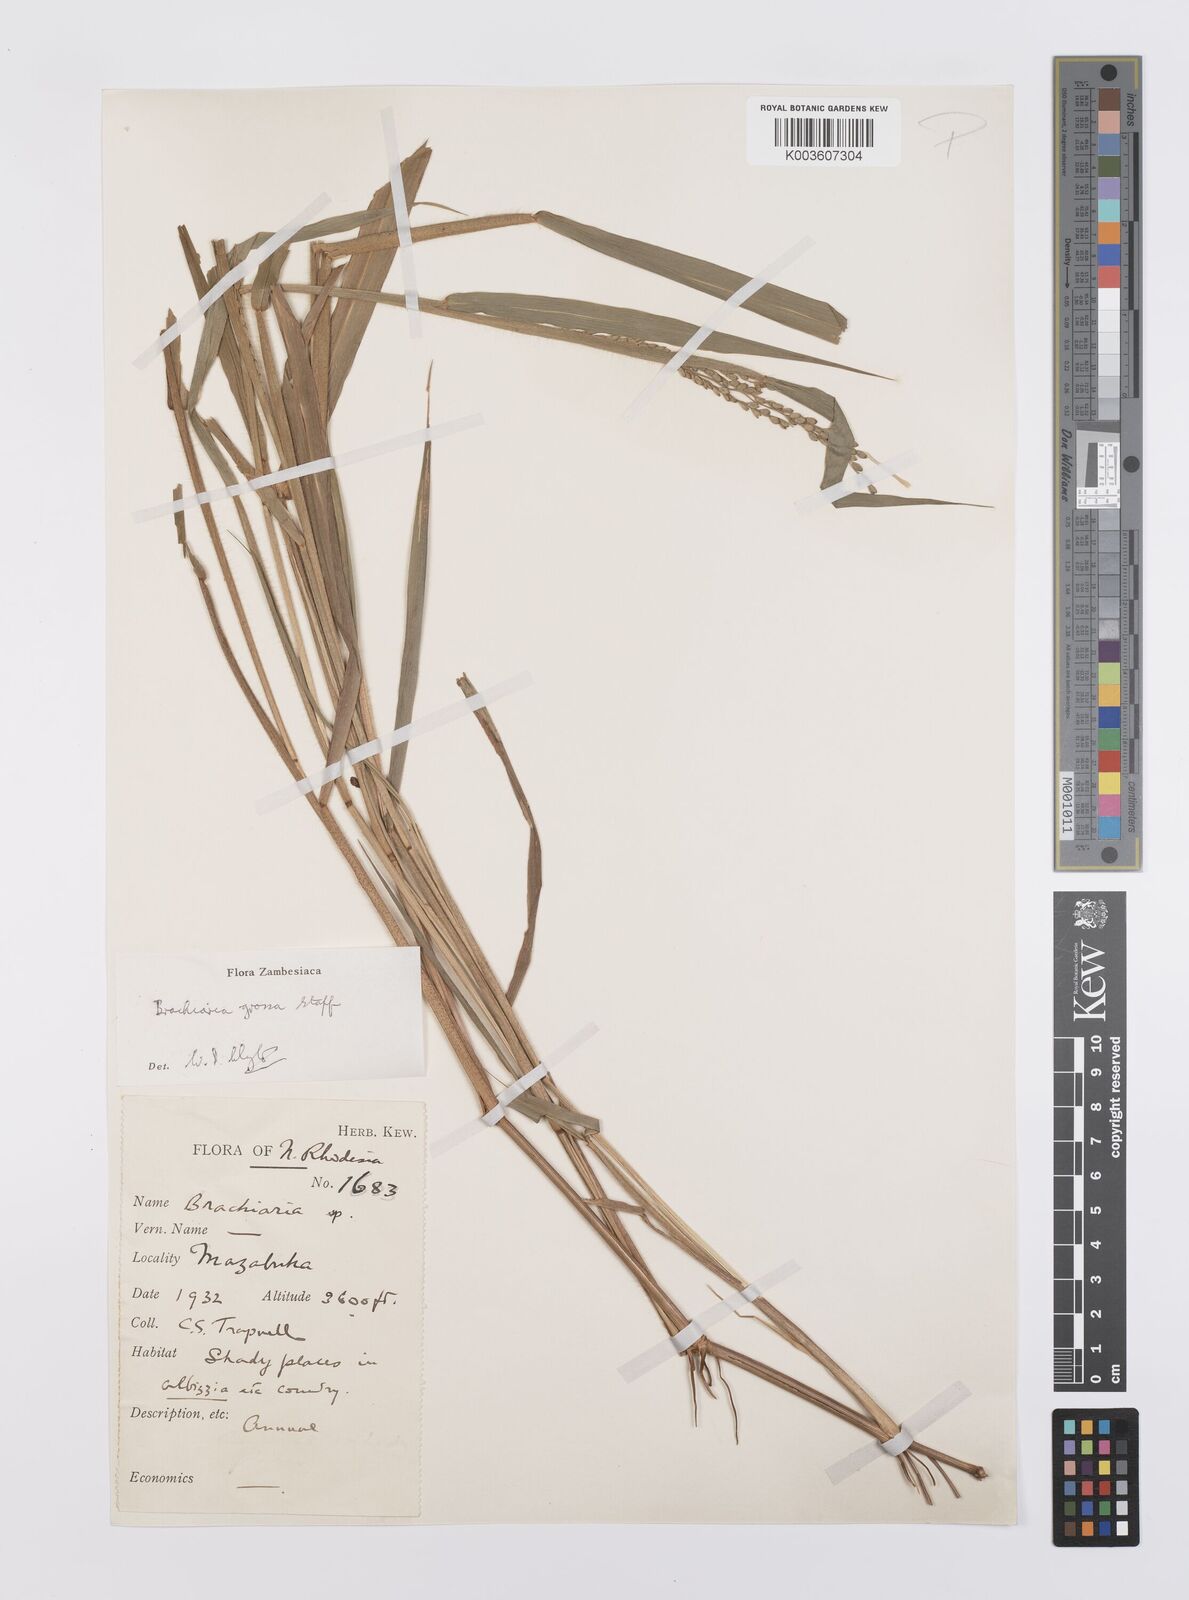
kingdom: Plantae
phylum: Tracheophyta
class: Liliopsida
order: Poales
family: Poaceae
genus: Urochloa
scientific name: Urochloa Brachiaria grossa
